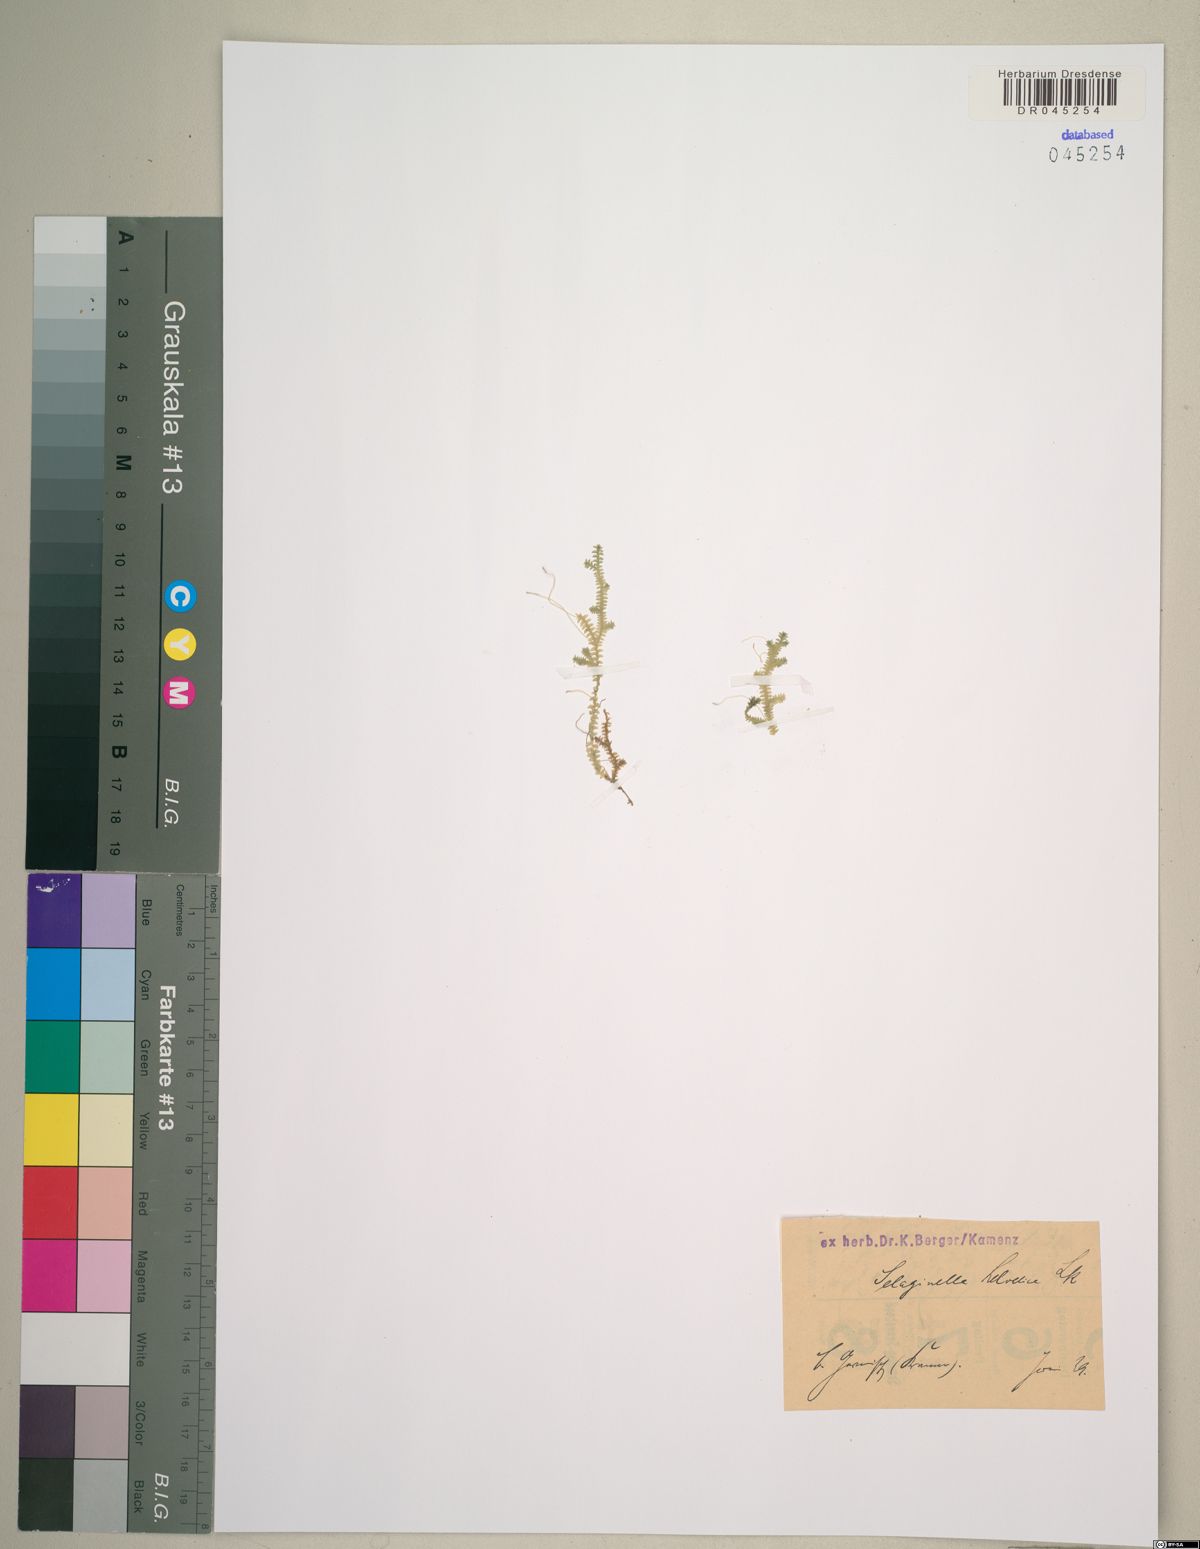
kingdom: Plantae
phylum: Tracheophyta
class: Lycopodiopsida
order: Selaginellales
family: Selaginellaceae
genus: Selaginella
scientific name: Selaginella helvetica
